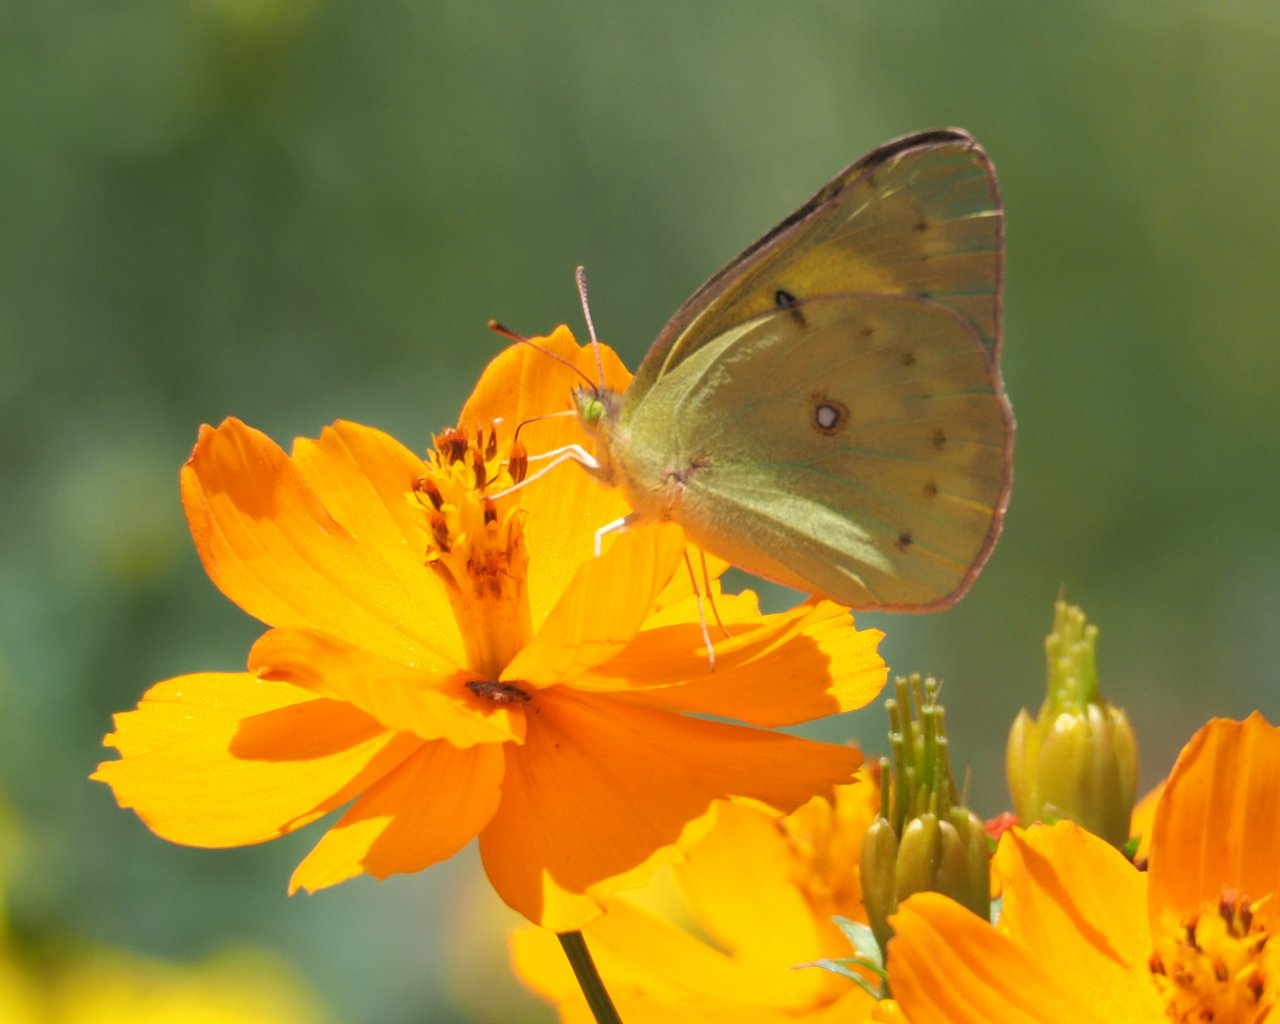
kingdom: Animalia
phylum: Arthropoda
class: Insecta
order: Lepidoptera
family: Pieridae
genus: Colias
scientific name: Colias eurytheme
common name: Orange Sulphur
